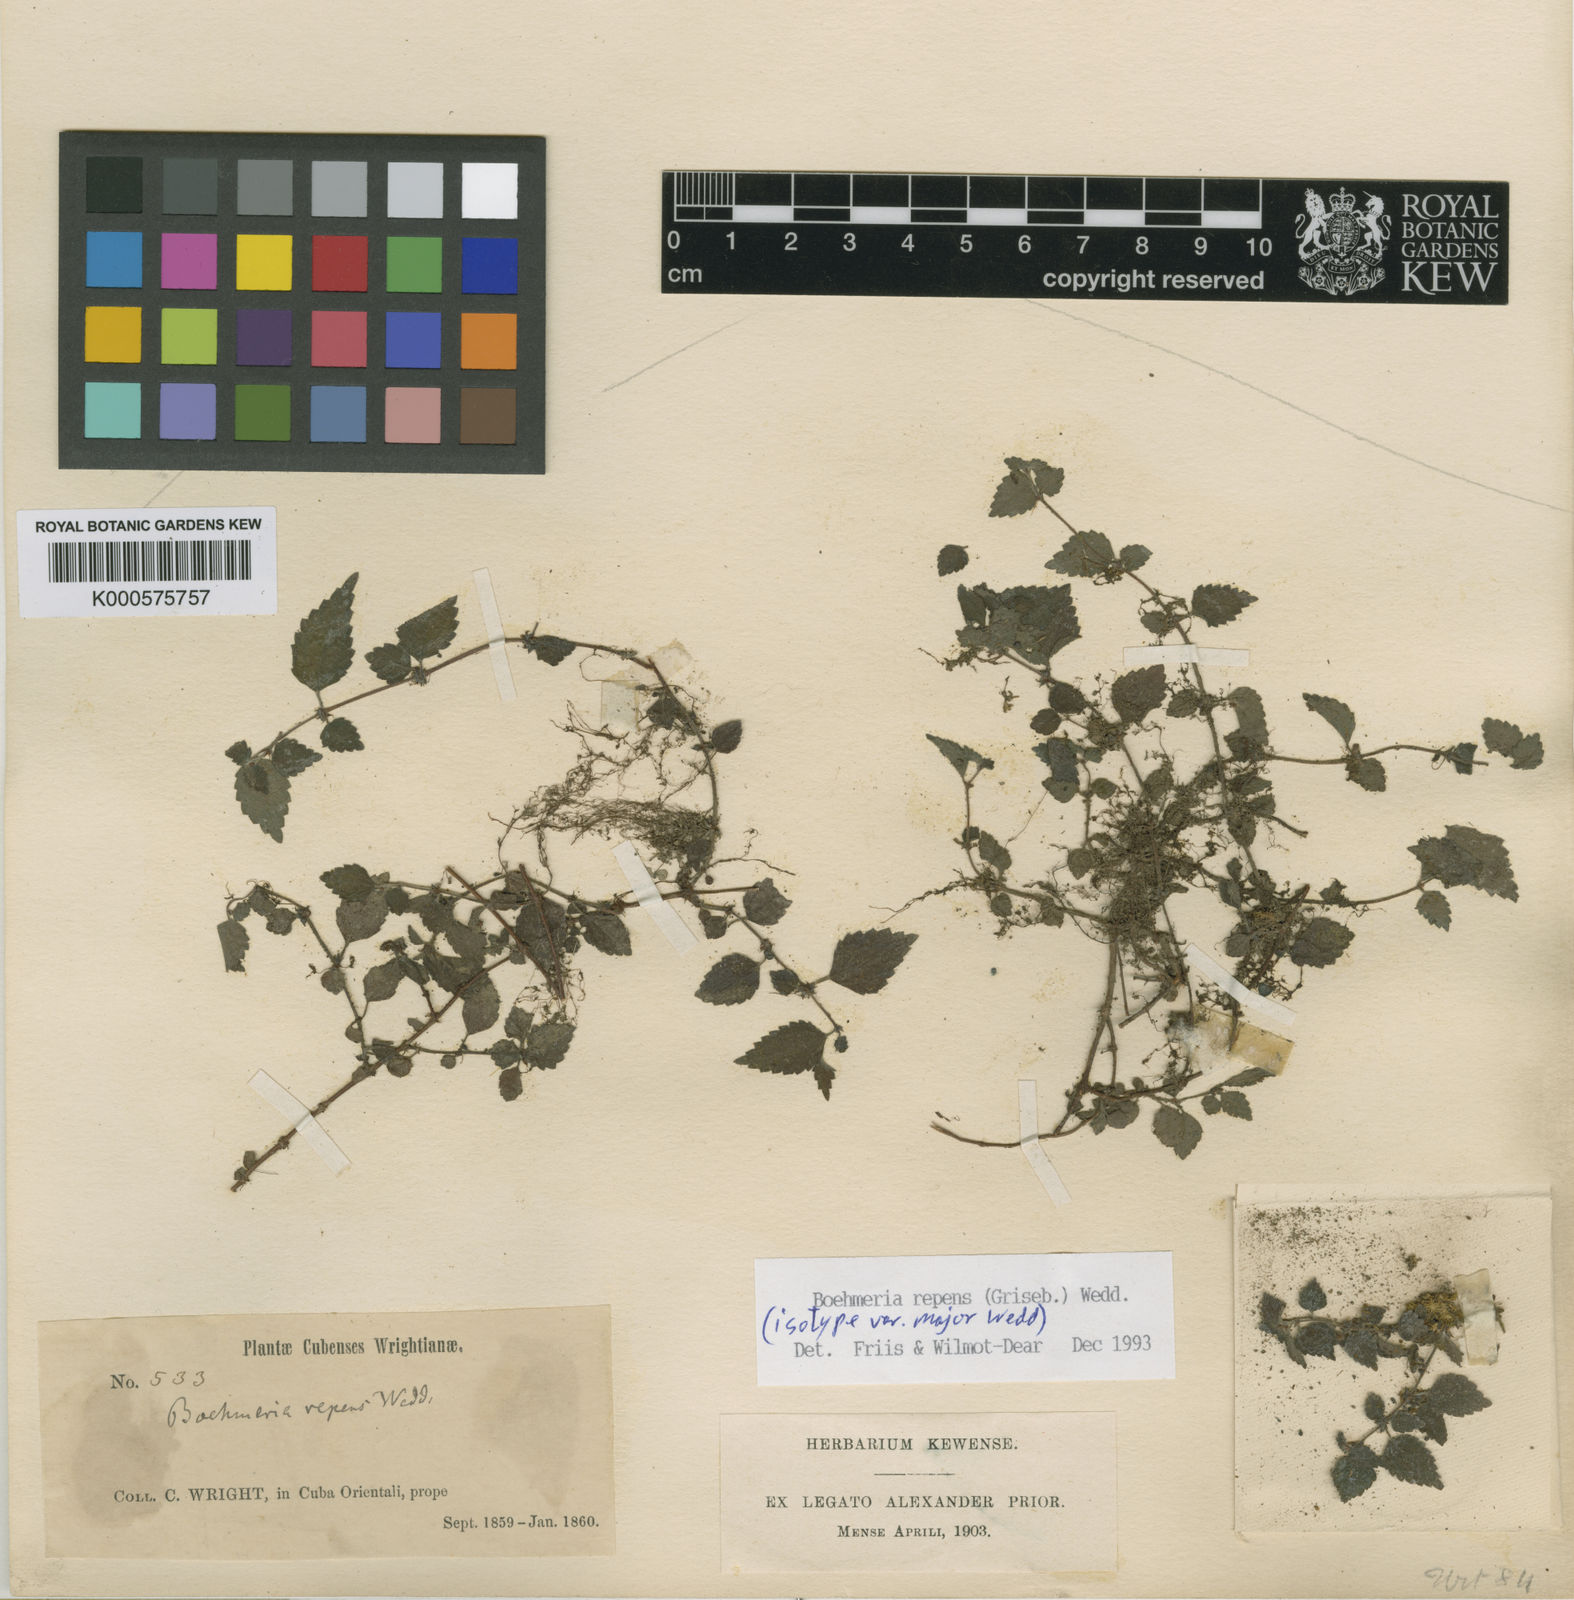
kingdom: Plantae
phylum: Tracheophyta
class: Magnoliopsida
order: Rosales
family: Urticaceae
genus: Boehmeria
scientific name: Boehmeria repens
